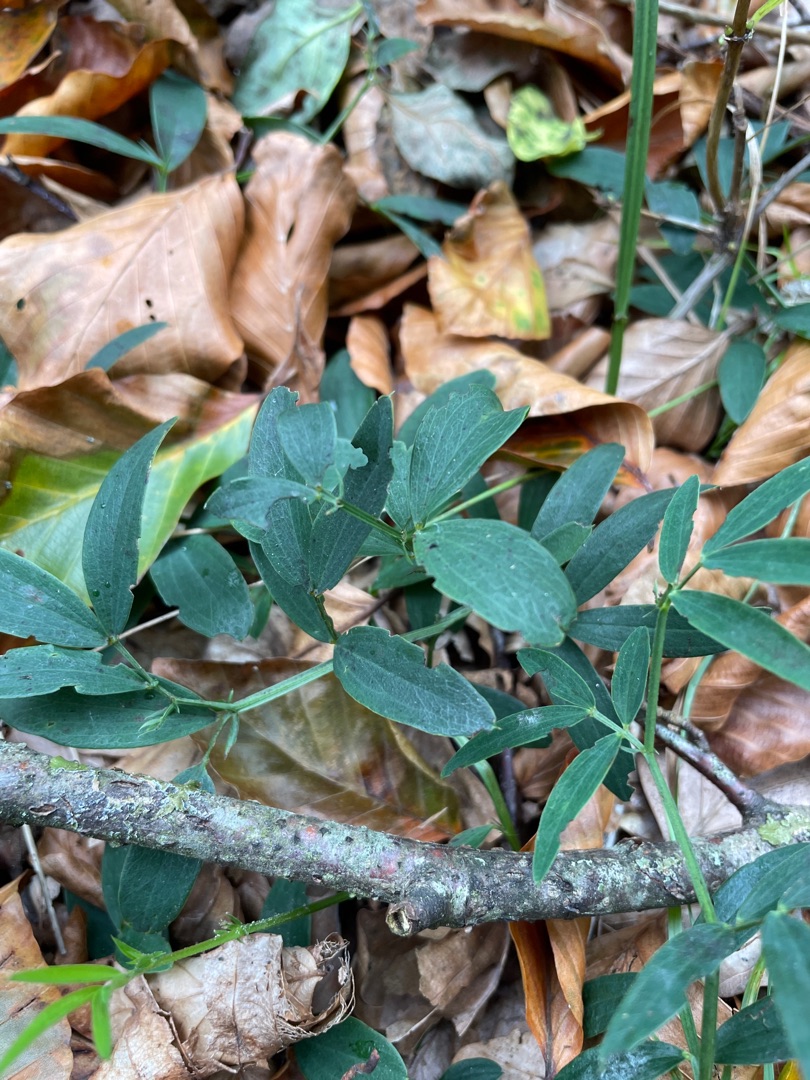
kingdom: Plantae
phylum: Tracheophyta
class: Magnoliopsida
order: Fabales
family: Fabaceae
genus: Lathyrus
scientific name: Lathyrus linifolius
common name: Krat-fladbælg
